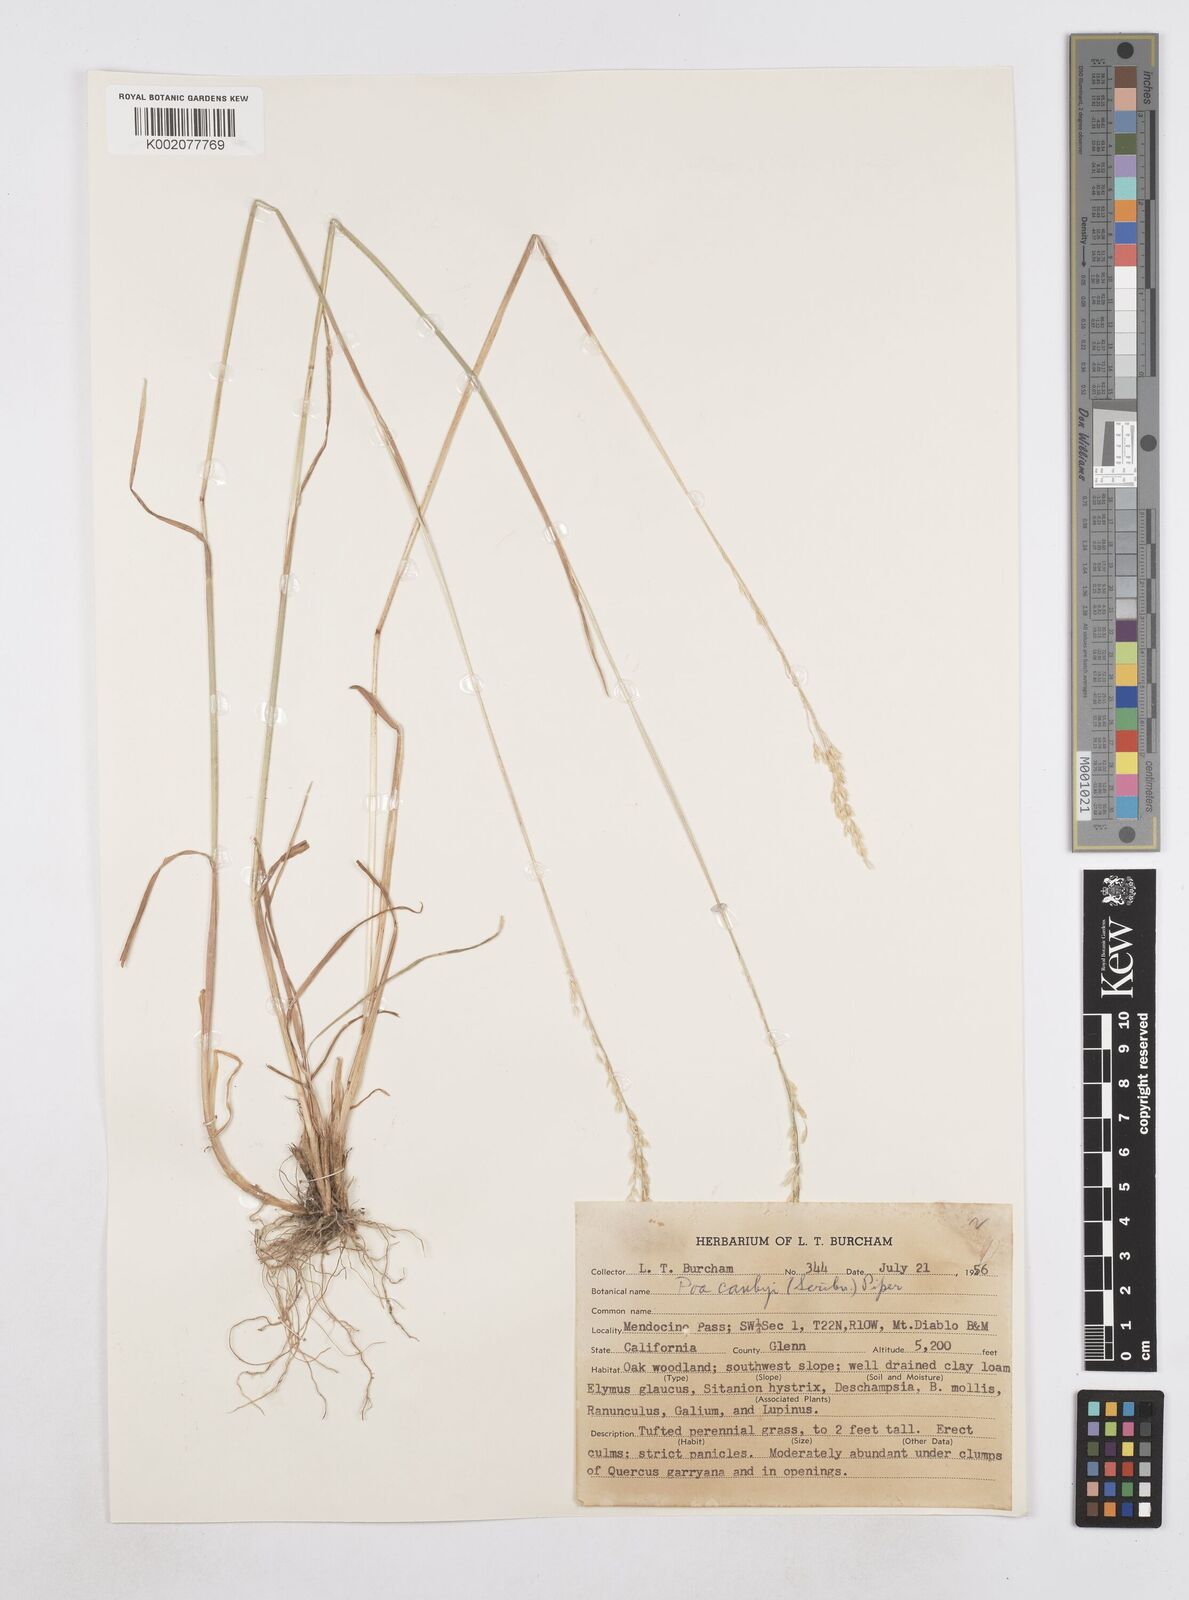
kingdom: Plantae
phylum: Tracheophyta
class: Liliopsida
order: Poales
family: Poaceae
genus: Poa
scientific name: Poa secunda
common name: Sandberg bluegrass
